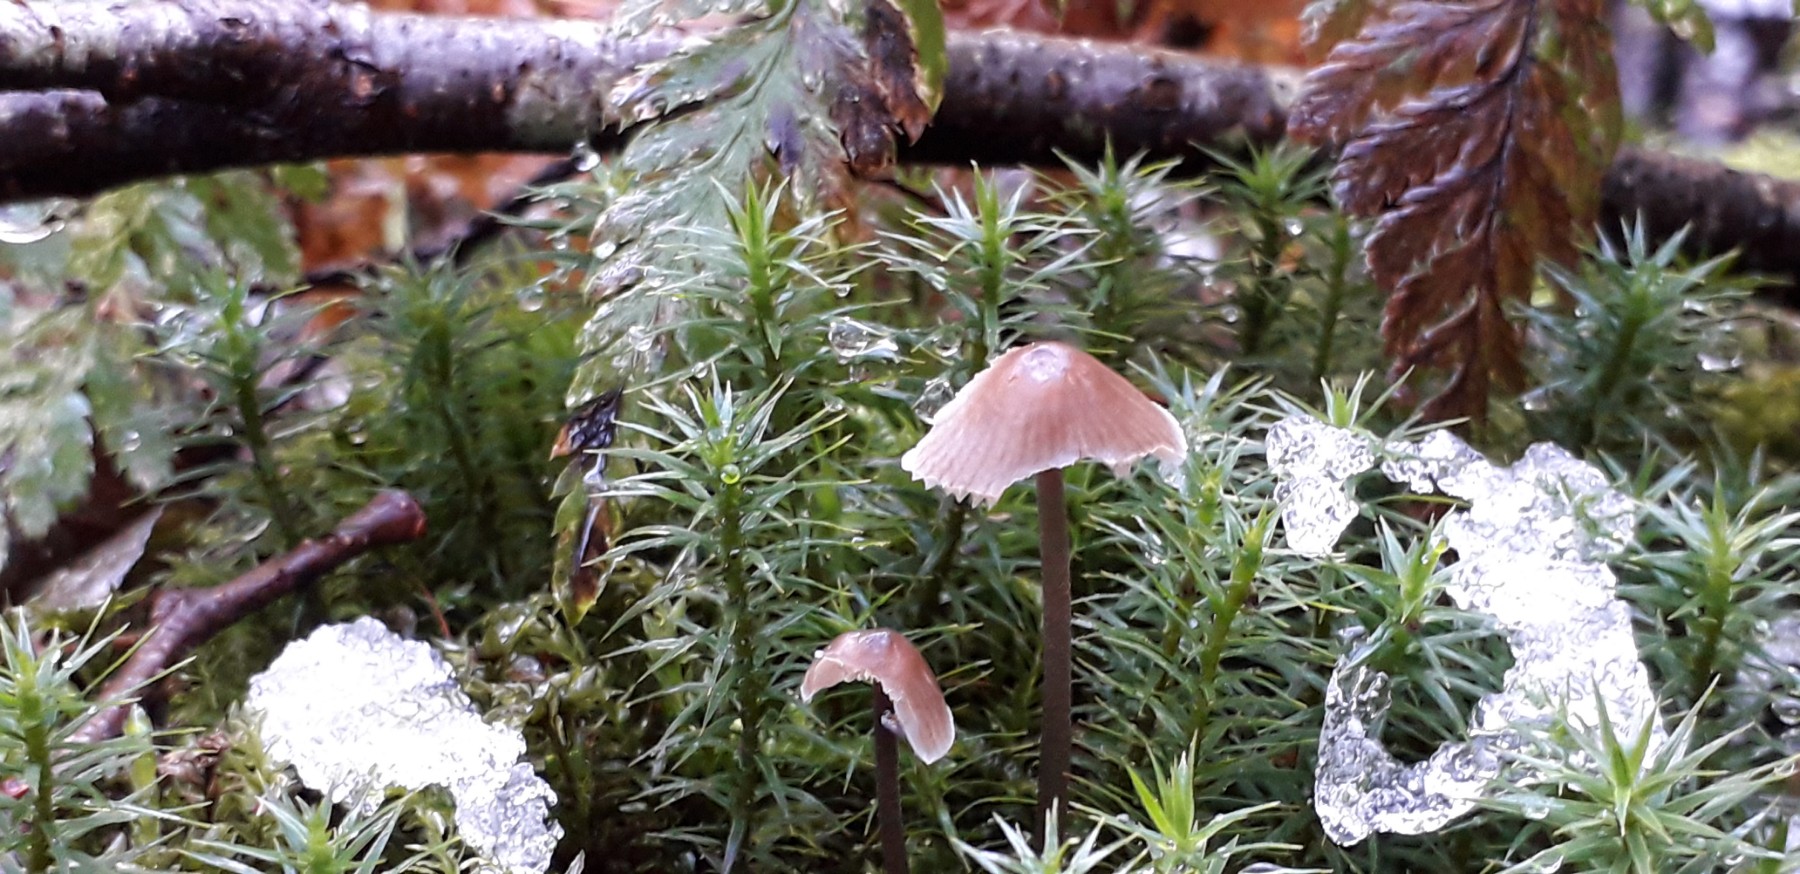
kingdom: Fungi
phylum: Basidiomycota
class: Agaricomycetes
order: Agaricales
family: Mycenaceae
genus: Mycena
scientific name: Mycena leptocephala
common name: klor-huesvamp
